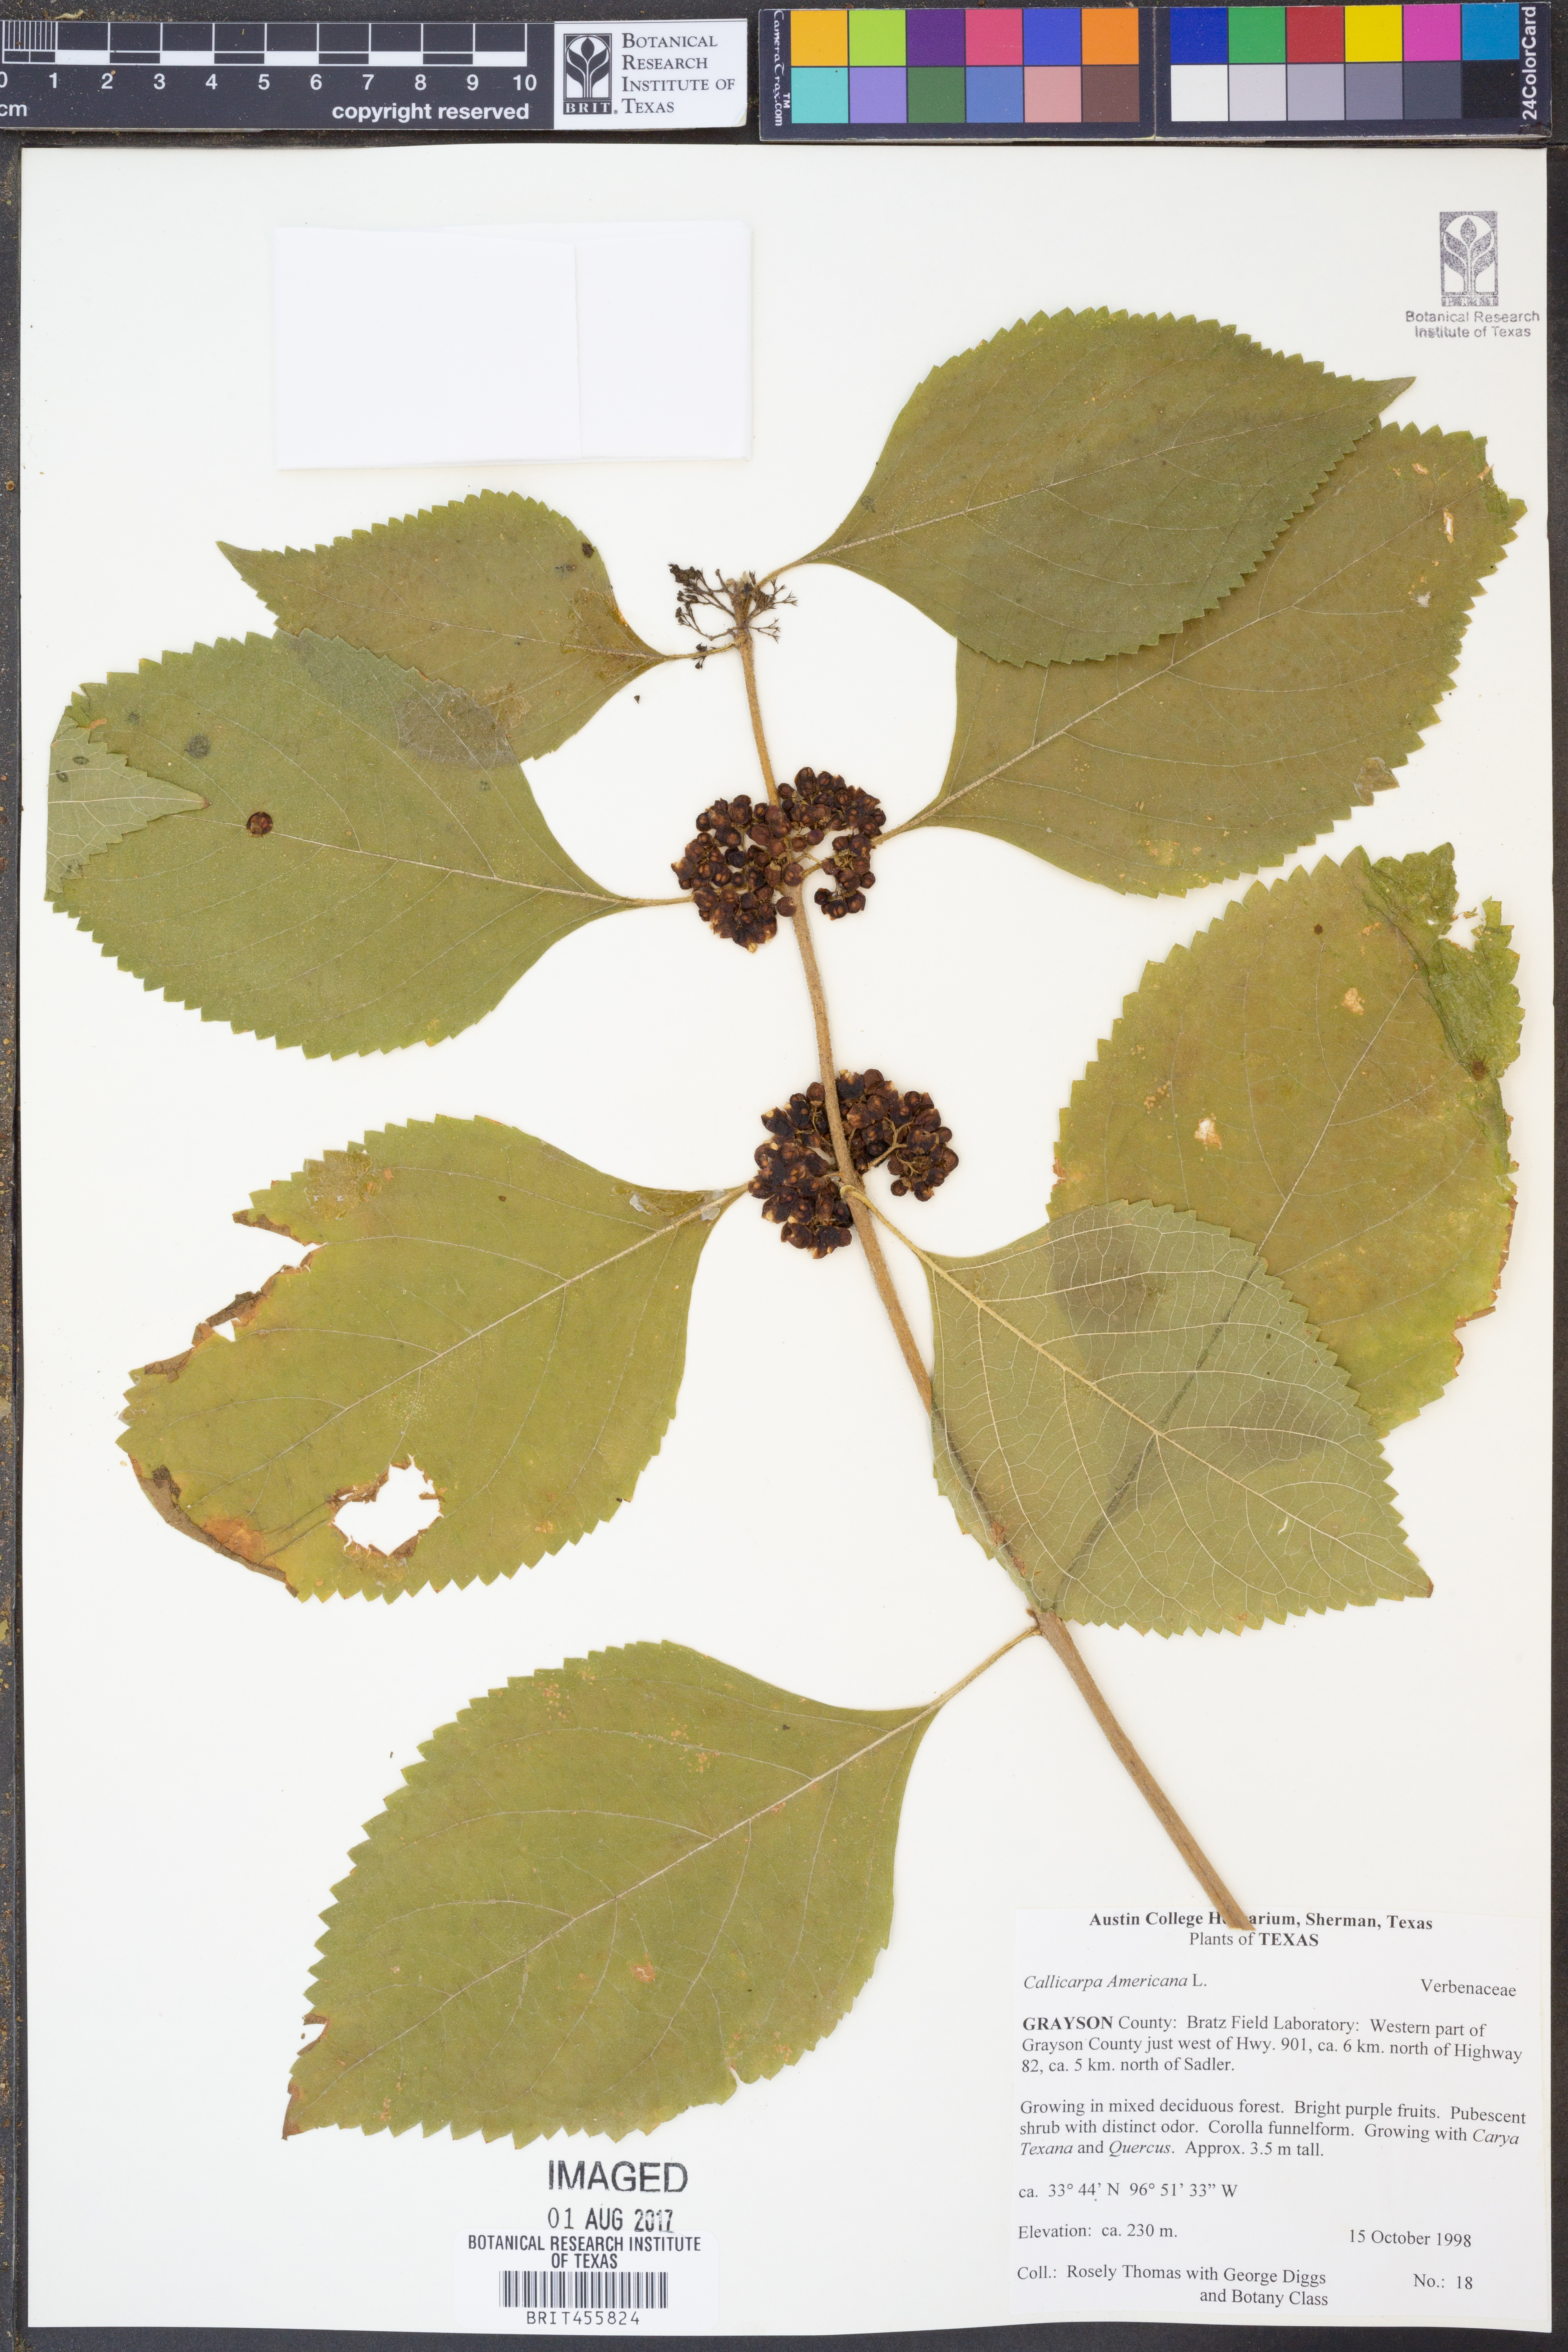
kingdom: Plantae
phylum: Tracheophyta
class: Magnoliopsida
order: Lamiales
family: Lamiaceae
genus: Callicarpa
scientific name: Callicarpa americana
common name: American beautyberry
